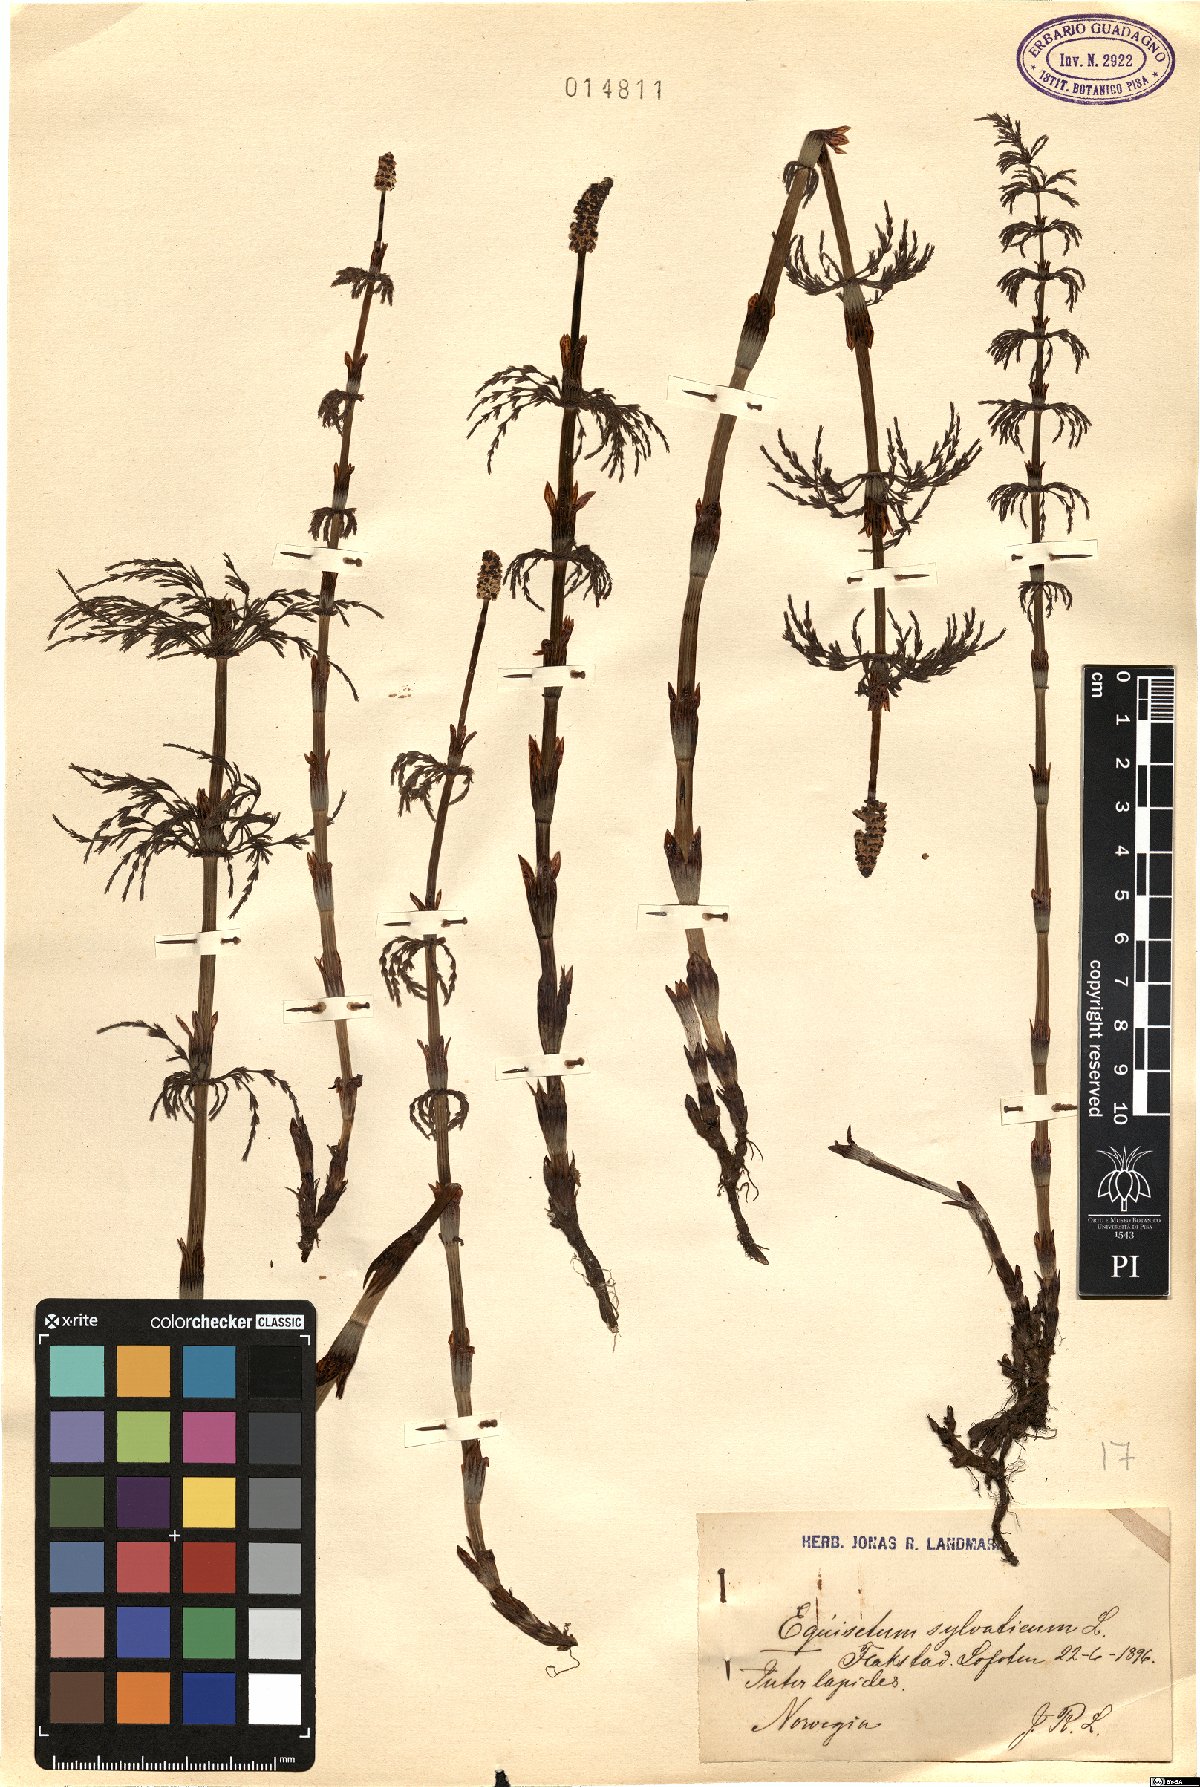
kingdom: Plantae
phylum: Tracheophyta
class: Polypodiopsida
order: Equisetales
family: Equisetaceae
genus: Equisetum
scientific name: Equisetum sylvaticum
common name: Wood horsetail
